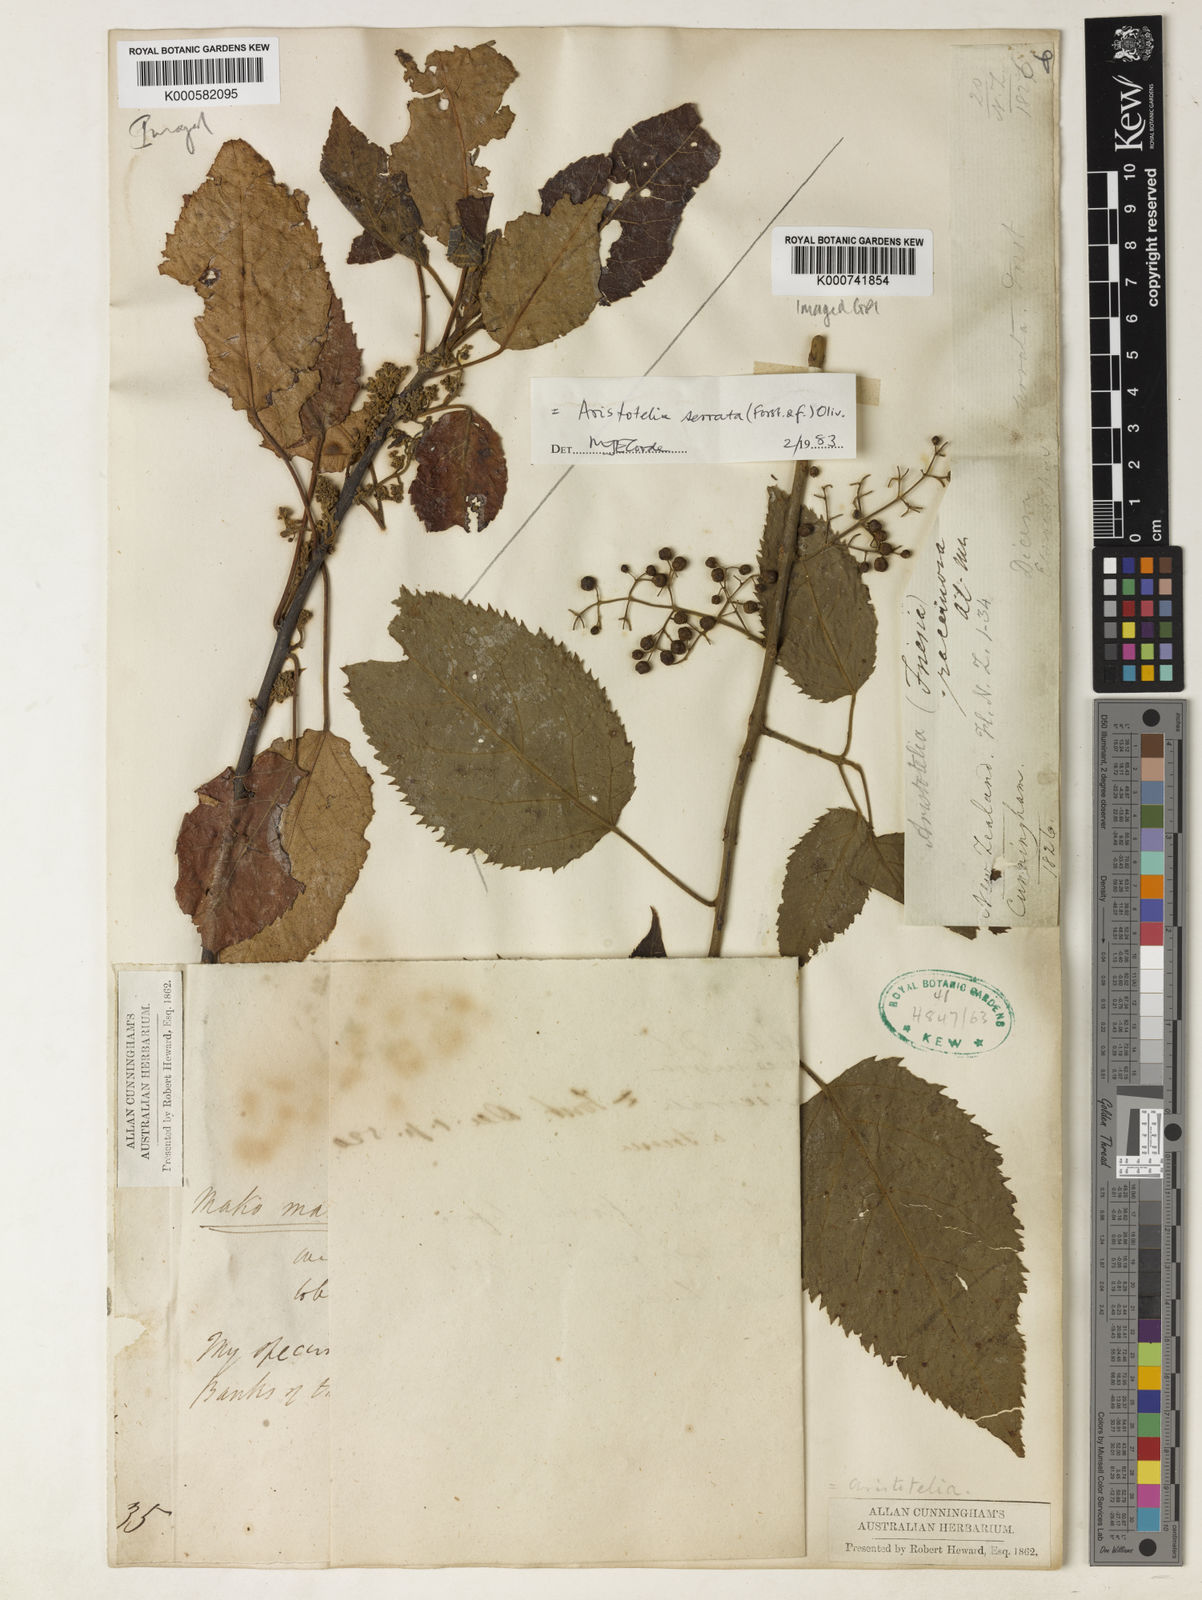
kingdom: Plantae
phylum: Tracheophyta
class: Magnoliopsida
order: Oxalidales
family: Elaeocarpaceae
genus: Aristotelia
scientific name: Aristotelia serrata
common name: New zealand wineberry
